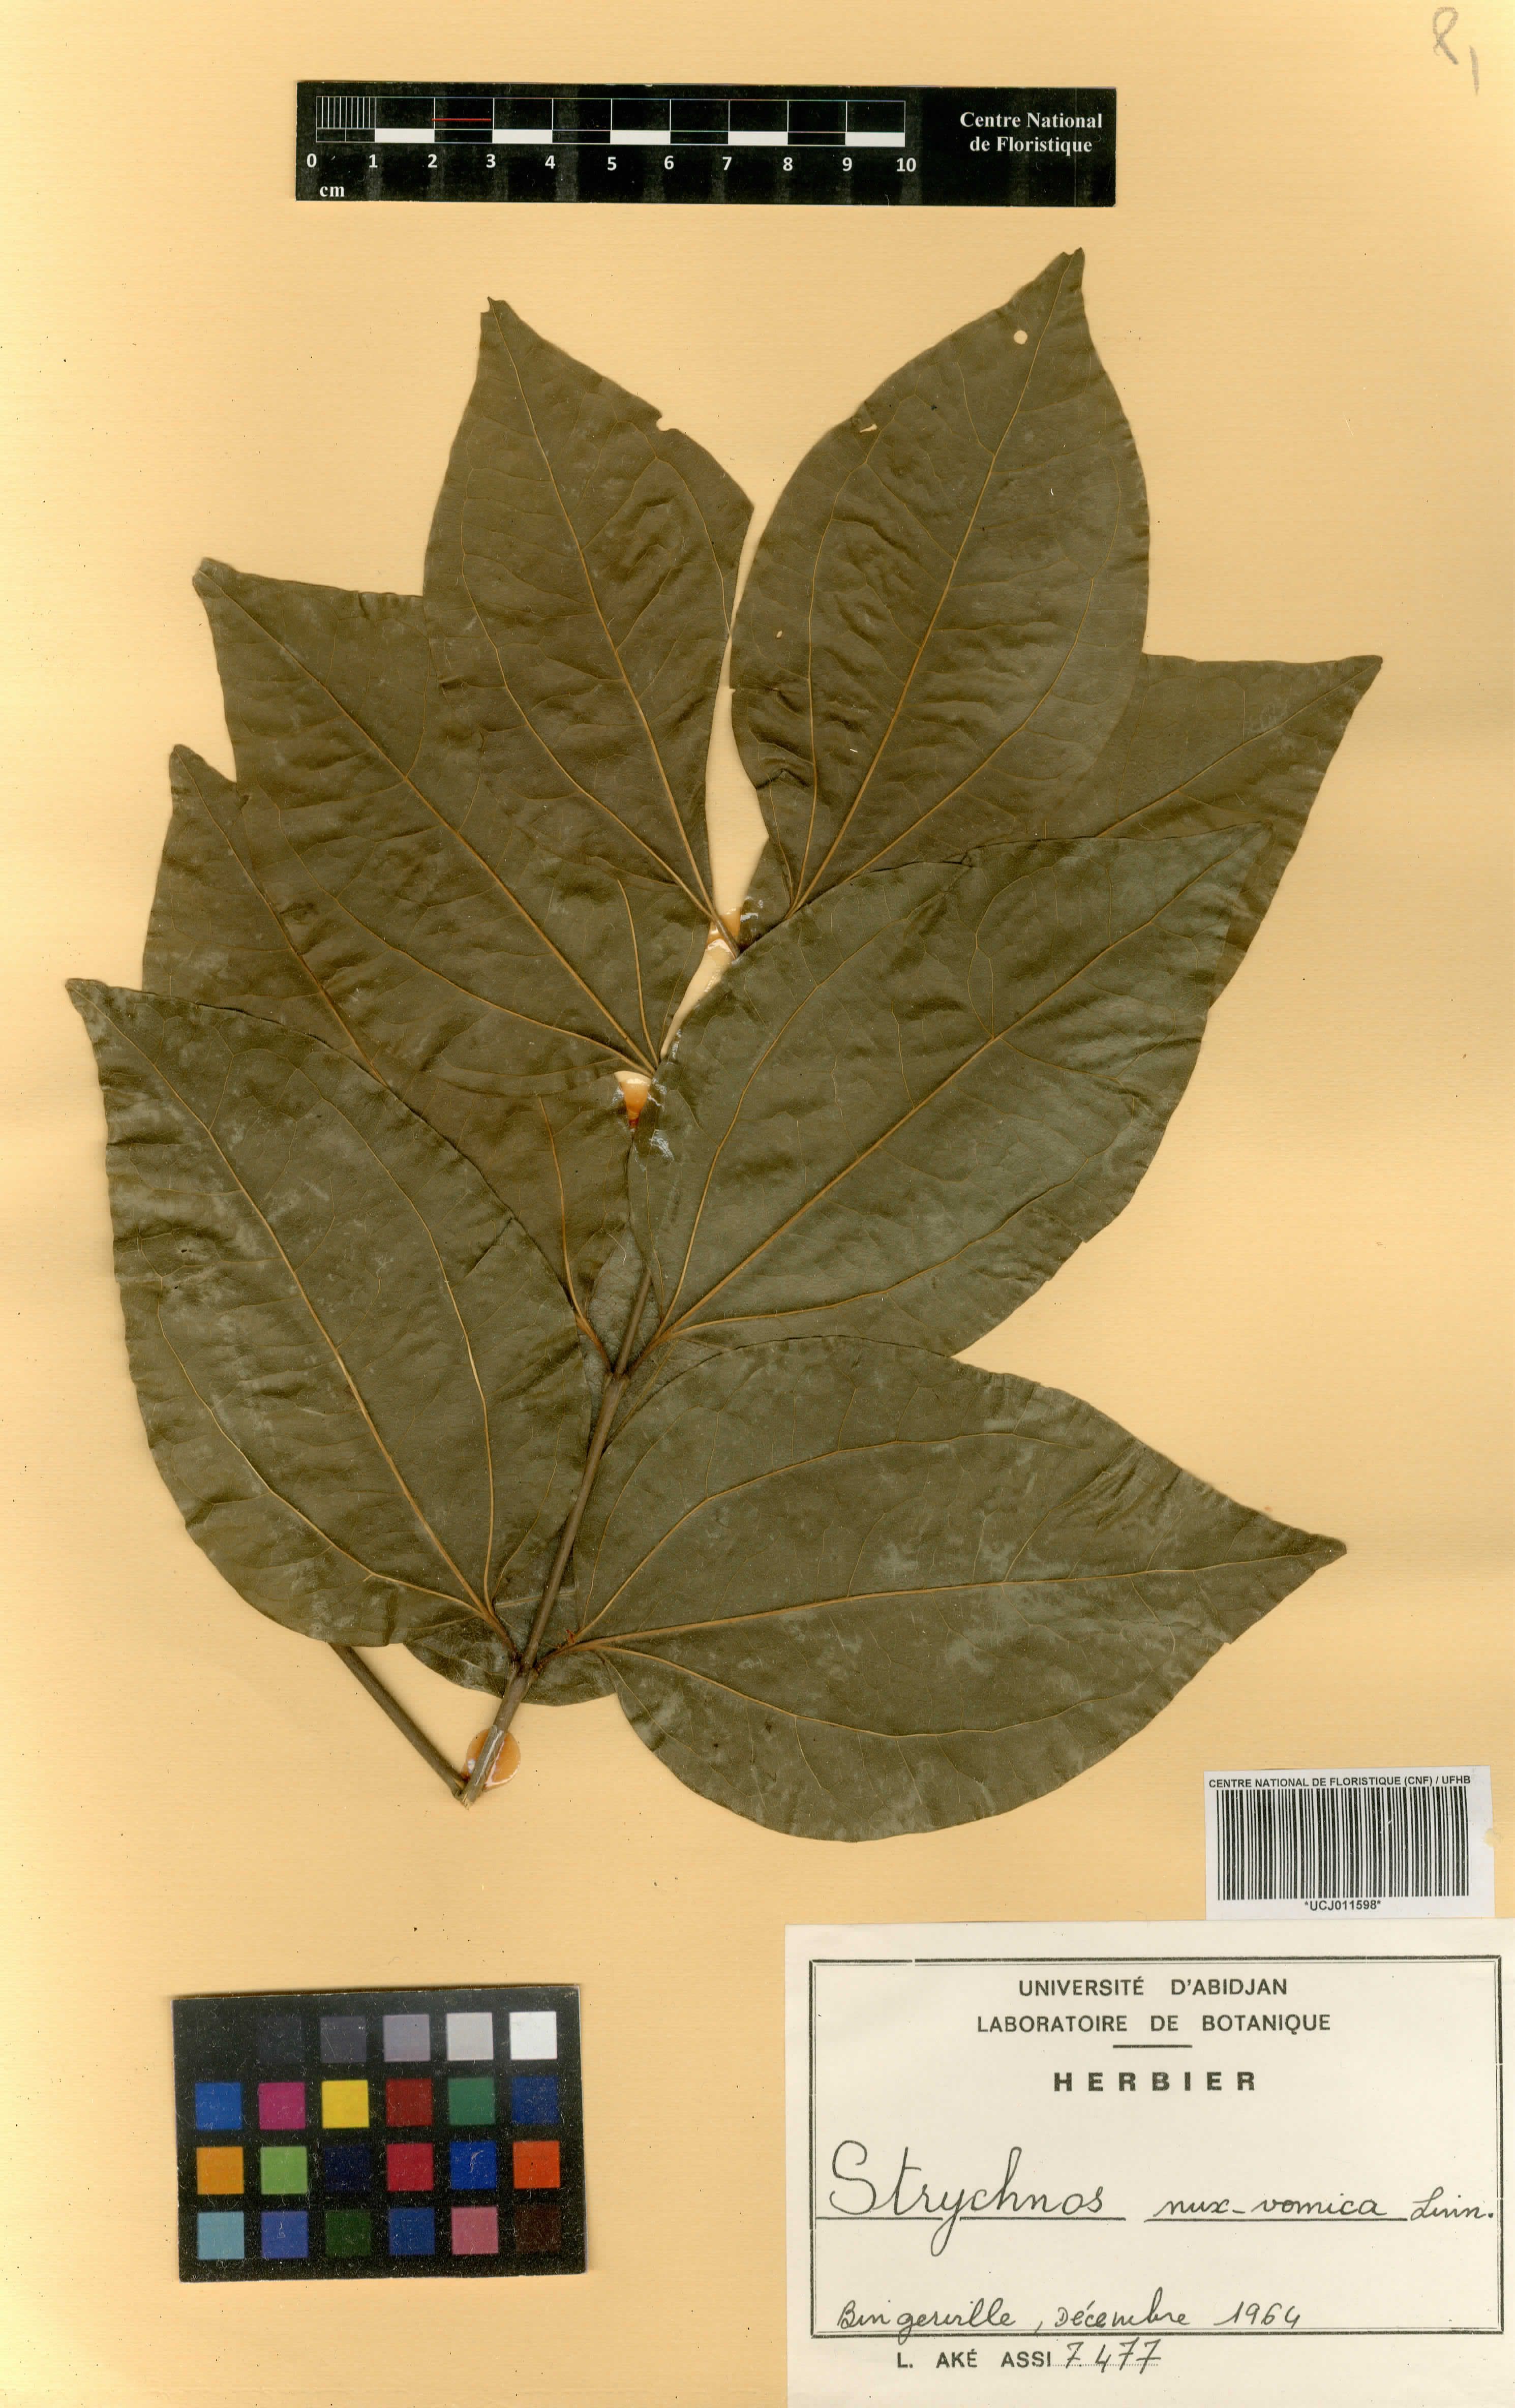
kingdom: Plantae
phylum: Tracheophyta
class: Magnoliopsida
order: Gentianales
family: Loganiaceae
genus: Strychnos
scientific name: Strychnos nux-vomica
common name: Strychninetree
